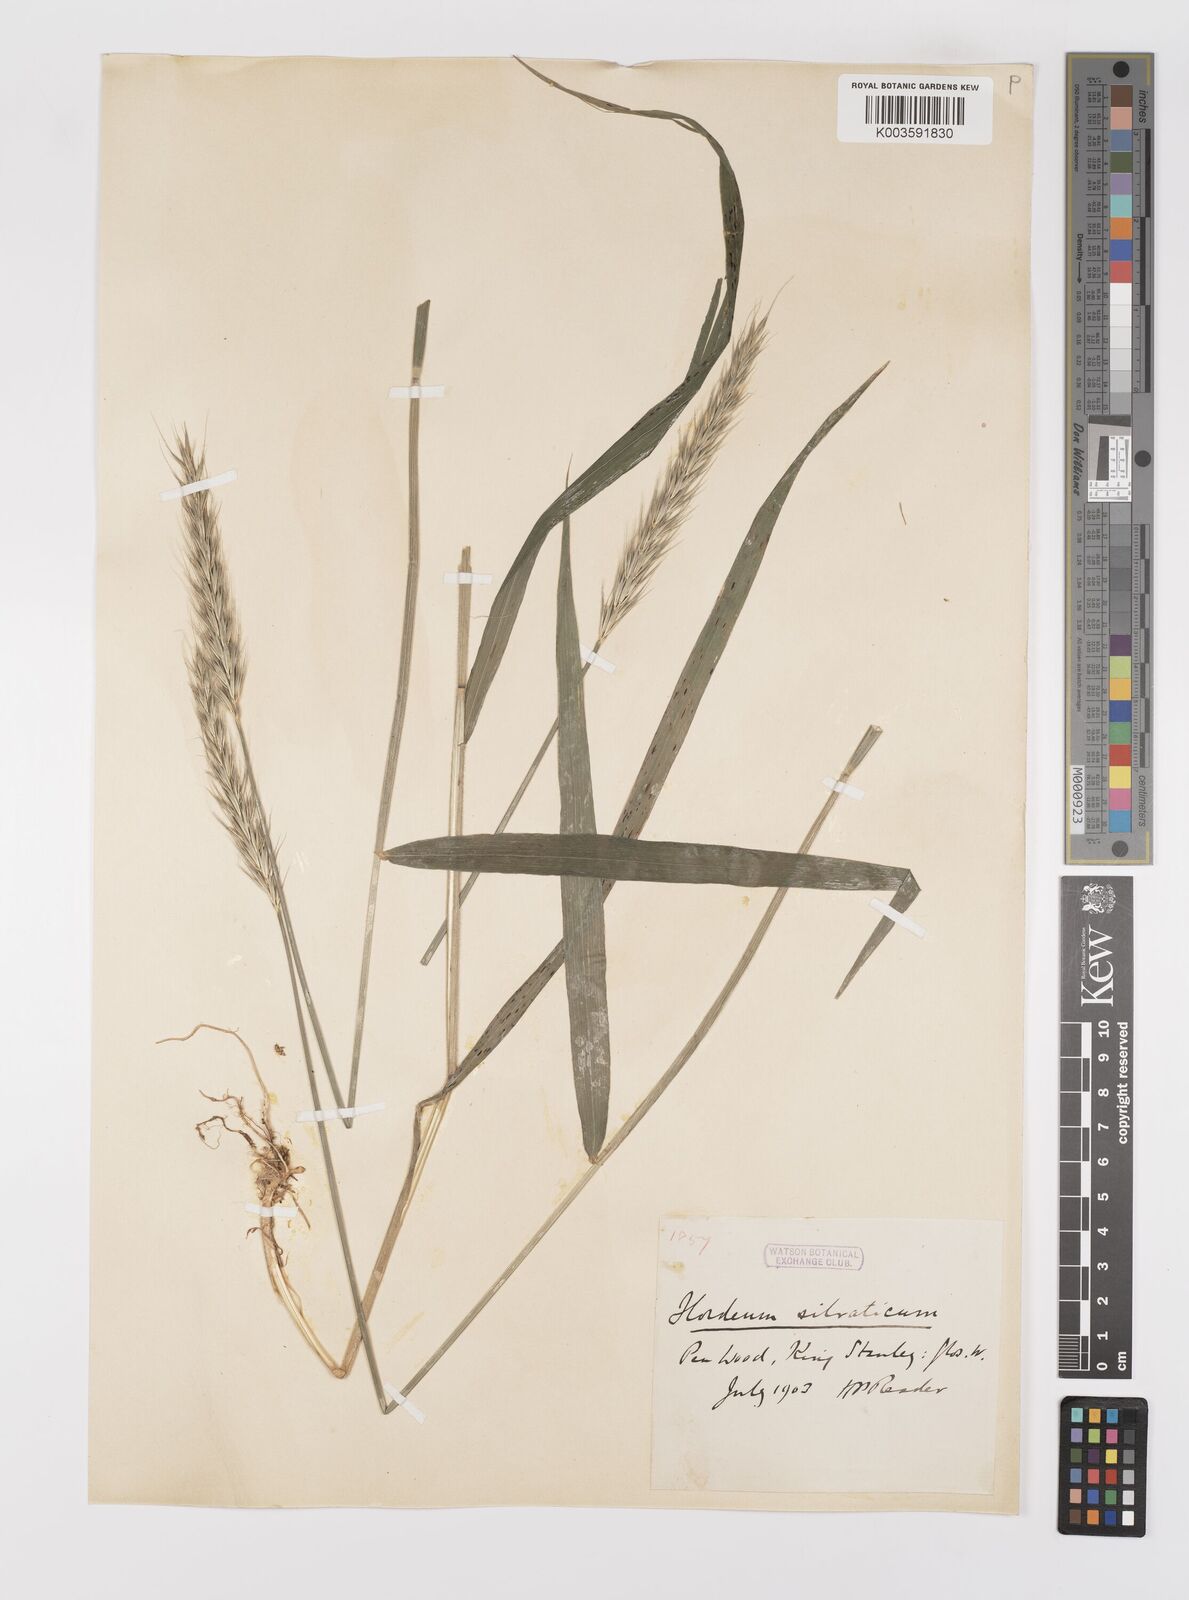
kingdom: Plantae
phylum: Tracheophyta
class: Liliopsida
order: Poales
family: Poaceae
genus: Hordelymus
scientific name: Hordelymus europaeus
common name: Wood-barley
